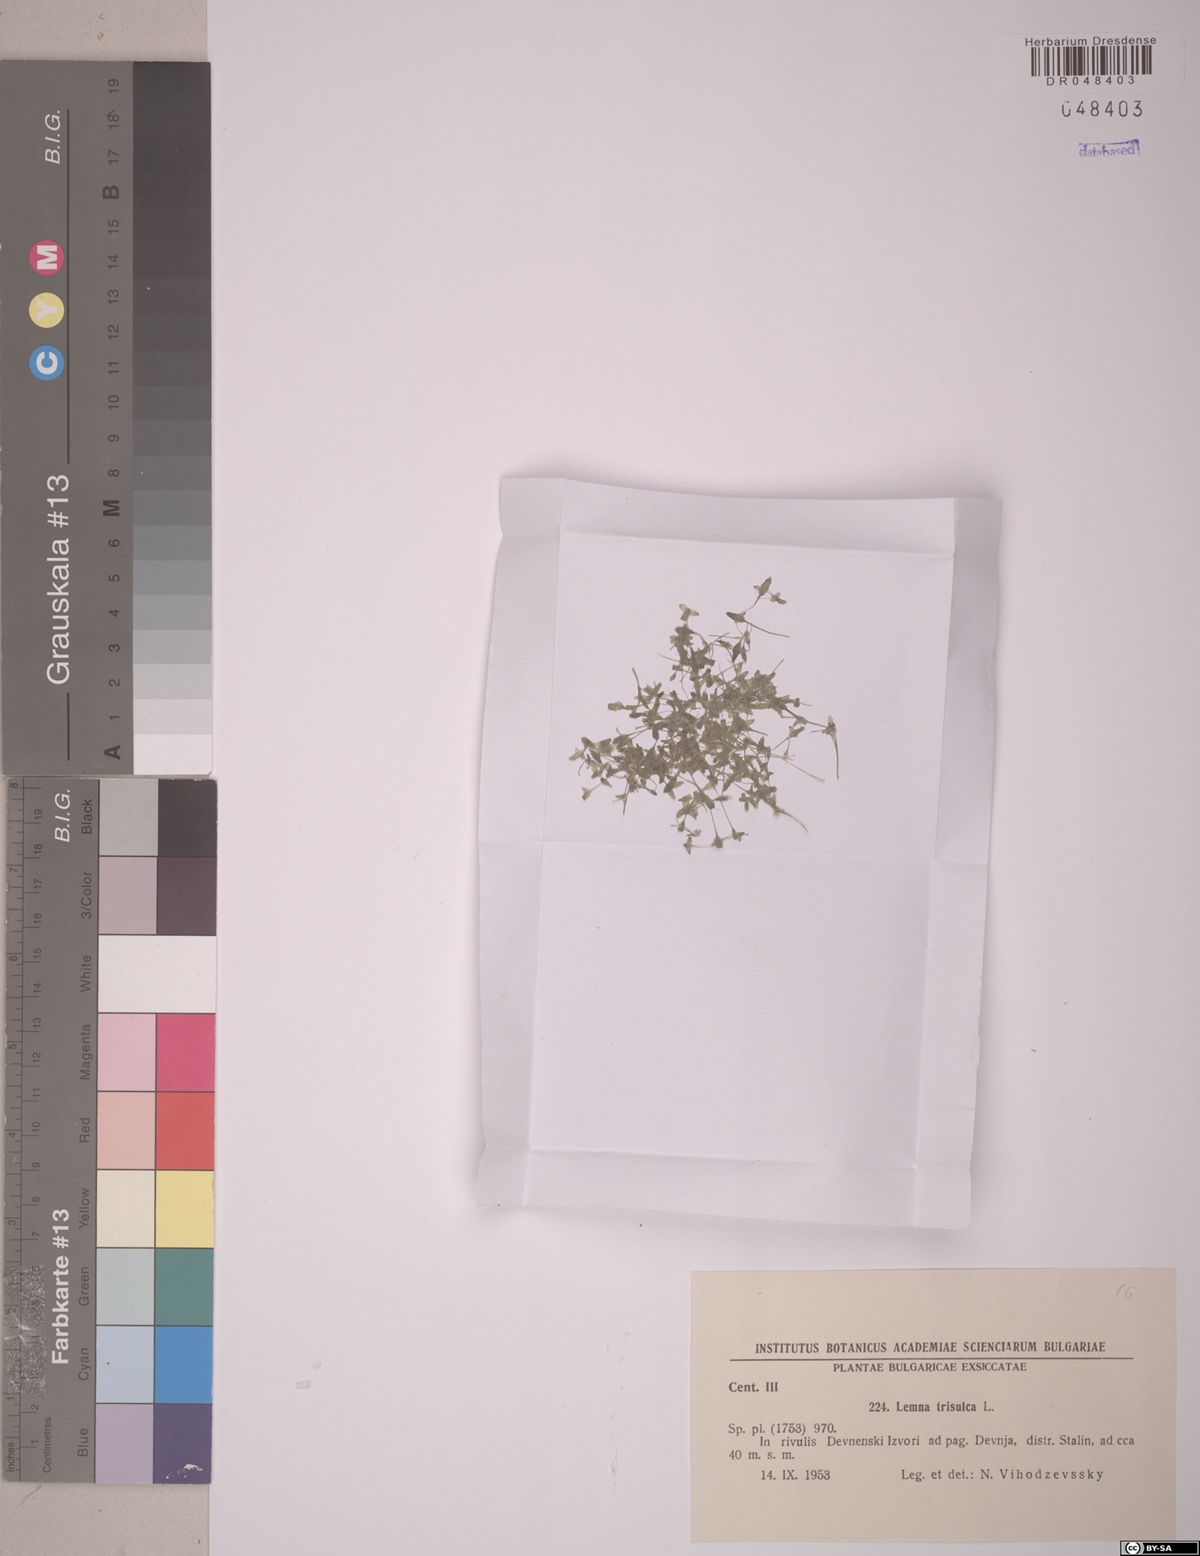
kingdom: Plantae
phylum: Tracheophyta
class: Liliopsida
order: Alismatales
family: Araceae
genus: Lemna
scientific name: Lemna trisulca
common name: Ivy-leaved duckweed
